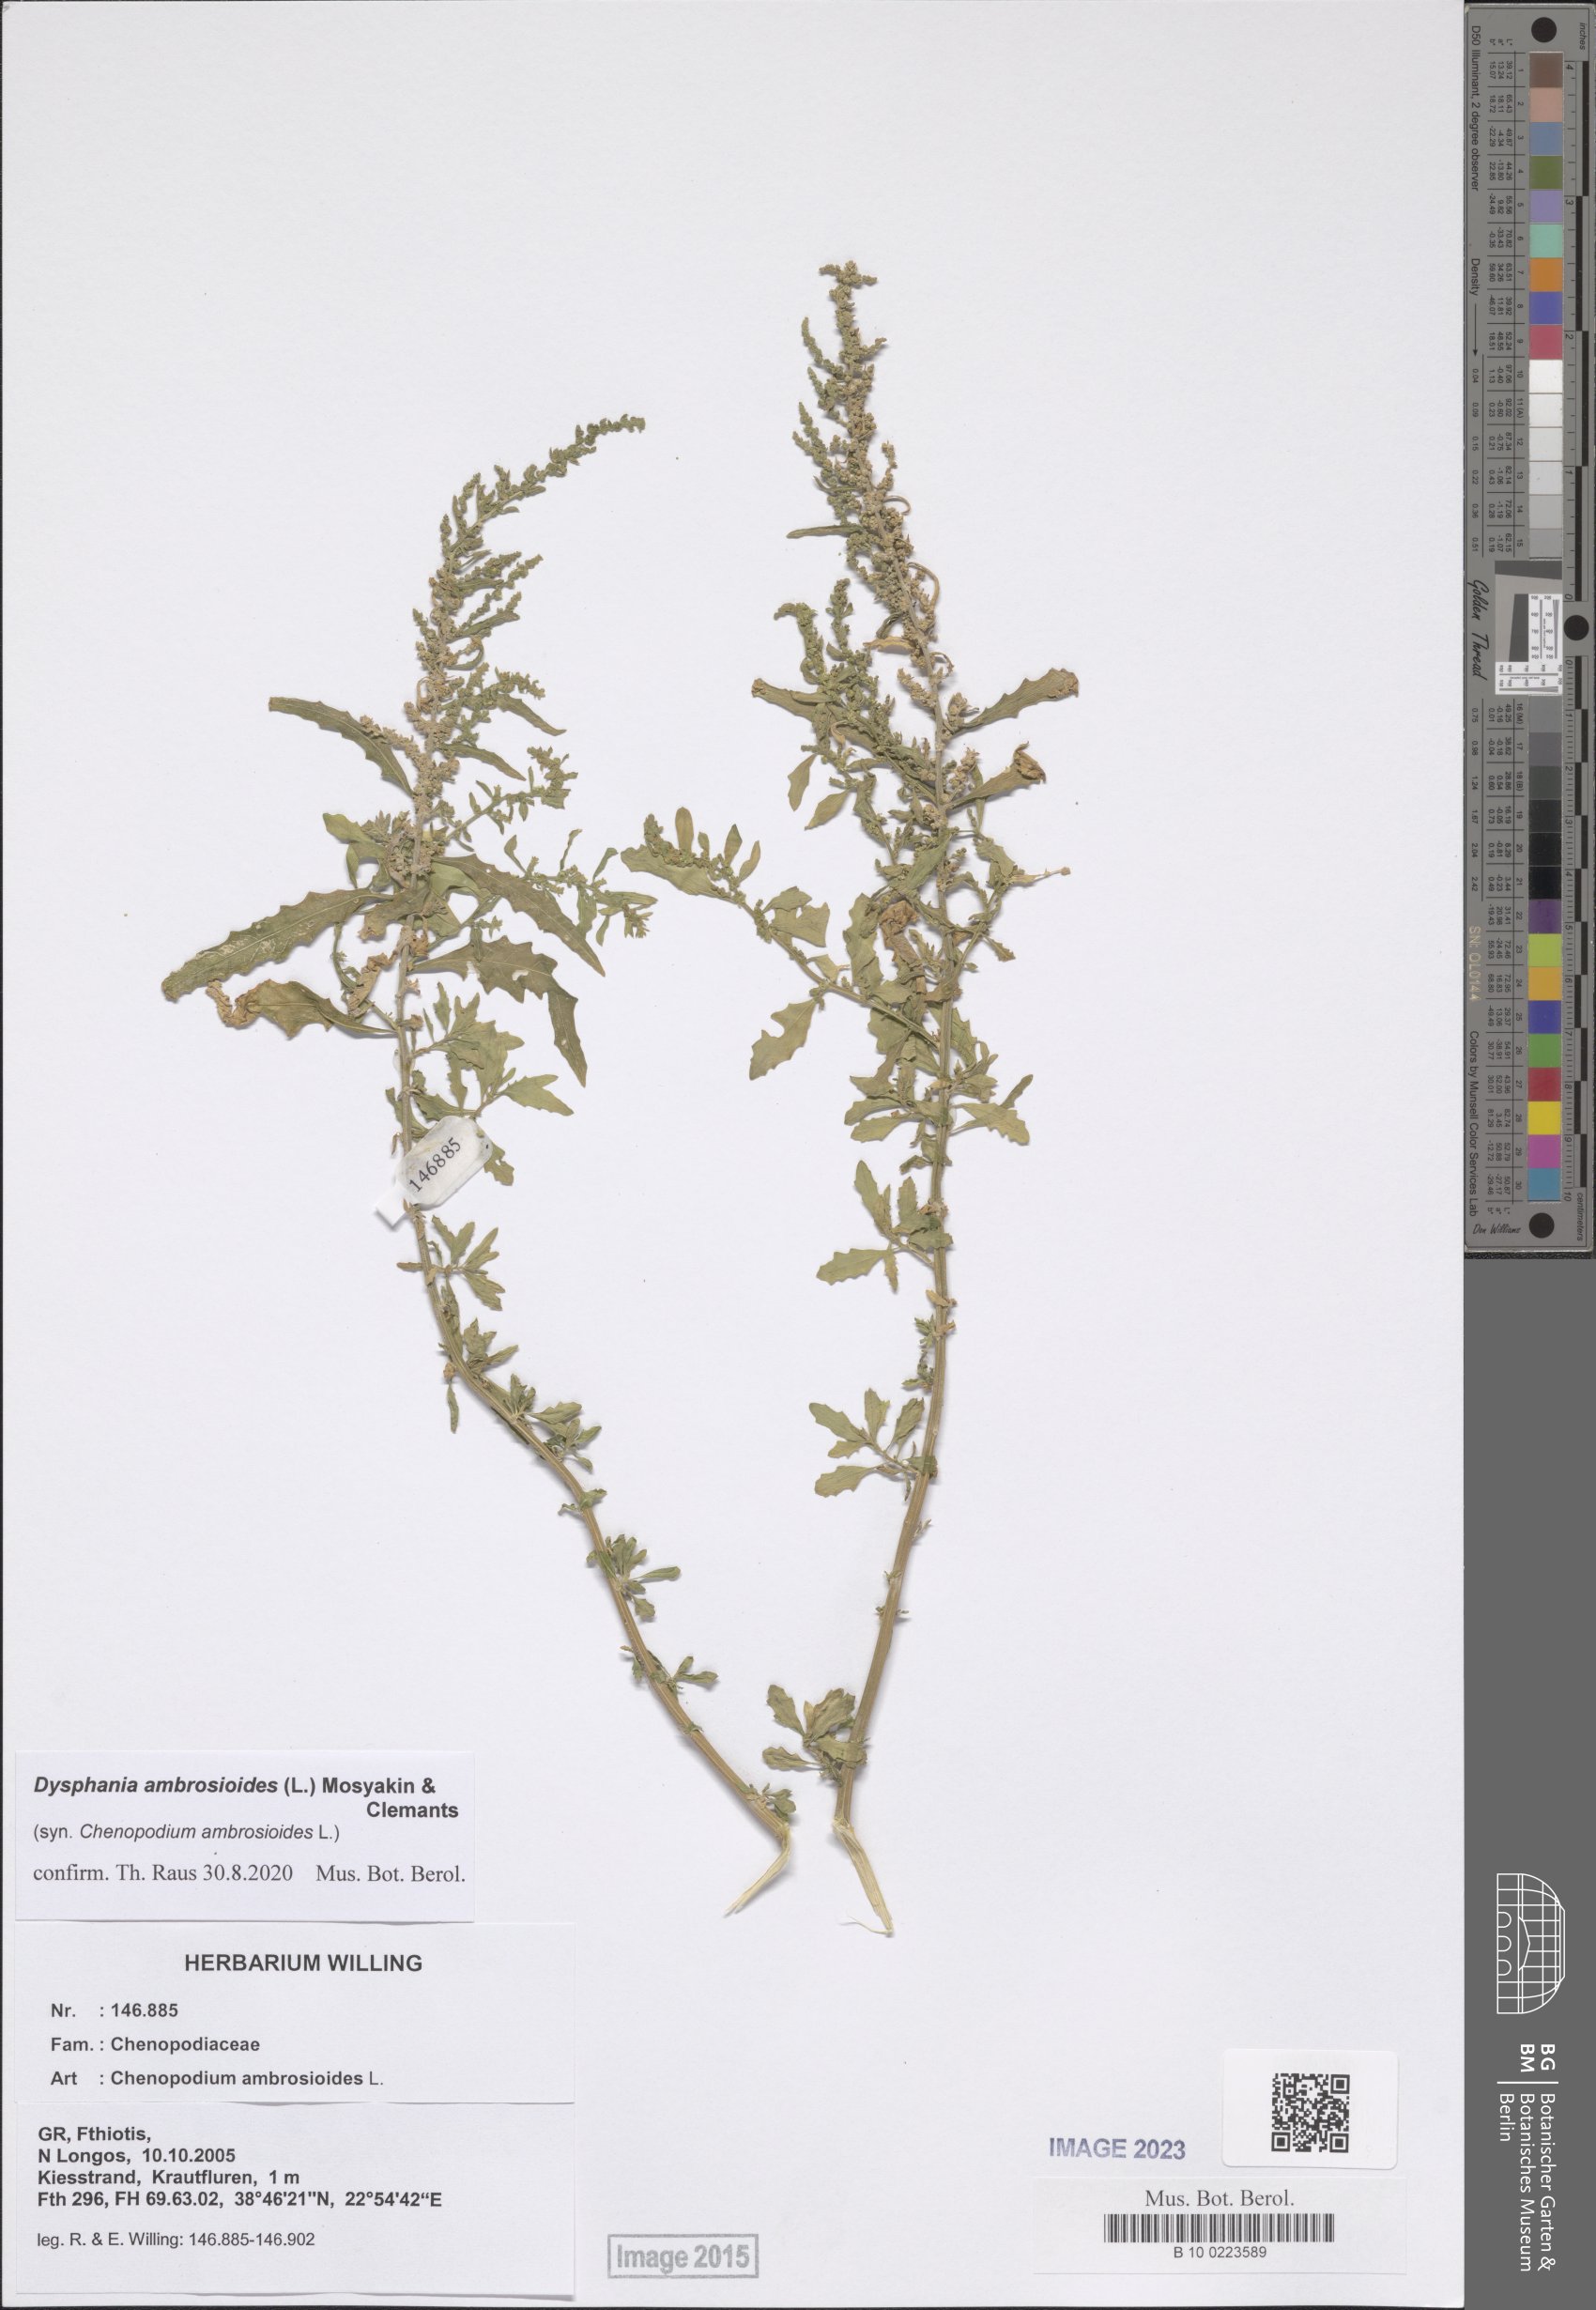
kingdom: Plantae
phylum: Tracheophyta
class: Magnoliopsida
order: Caryophyllales
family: Amaranthaceae
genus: Dysphania
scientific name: Dysphania ambrosioides
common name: Wormseed
